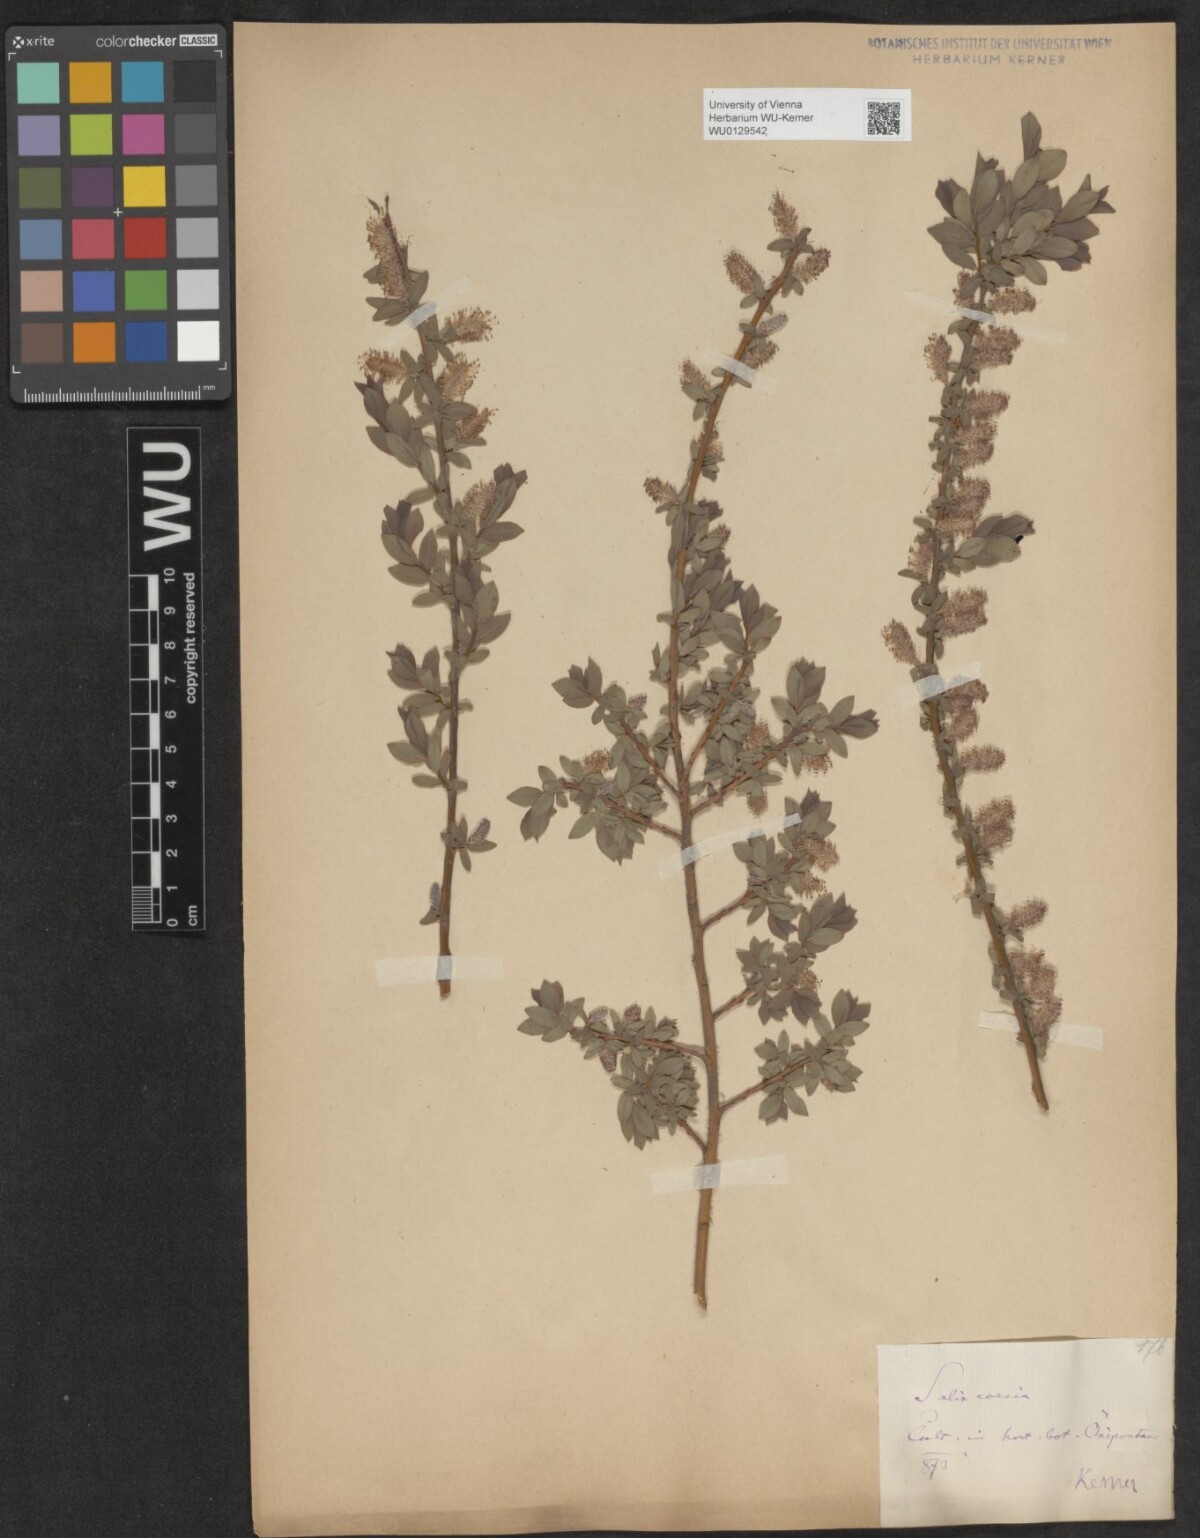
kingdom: Plantae
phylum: Tracheophyta
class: Magnoliopsida
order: Malpighiales
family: Salicaceae
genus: Salix
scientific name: Salix caesia
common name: Blue willow
